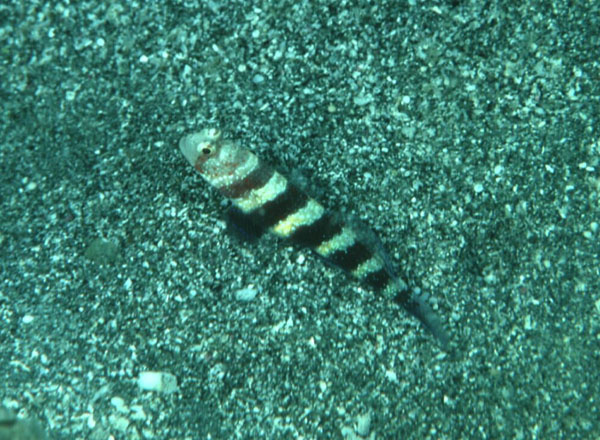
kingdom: Animalia
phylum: Chordata
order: Perciformes
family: Gobiidae
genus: Amblyeleotris
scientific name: Amblyeleotris wheeleri
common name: Gorgeous prawn-goby
